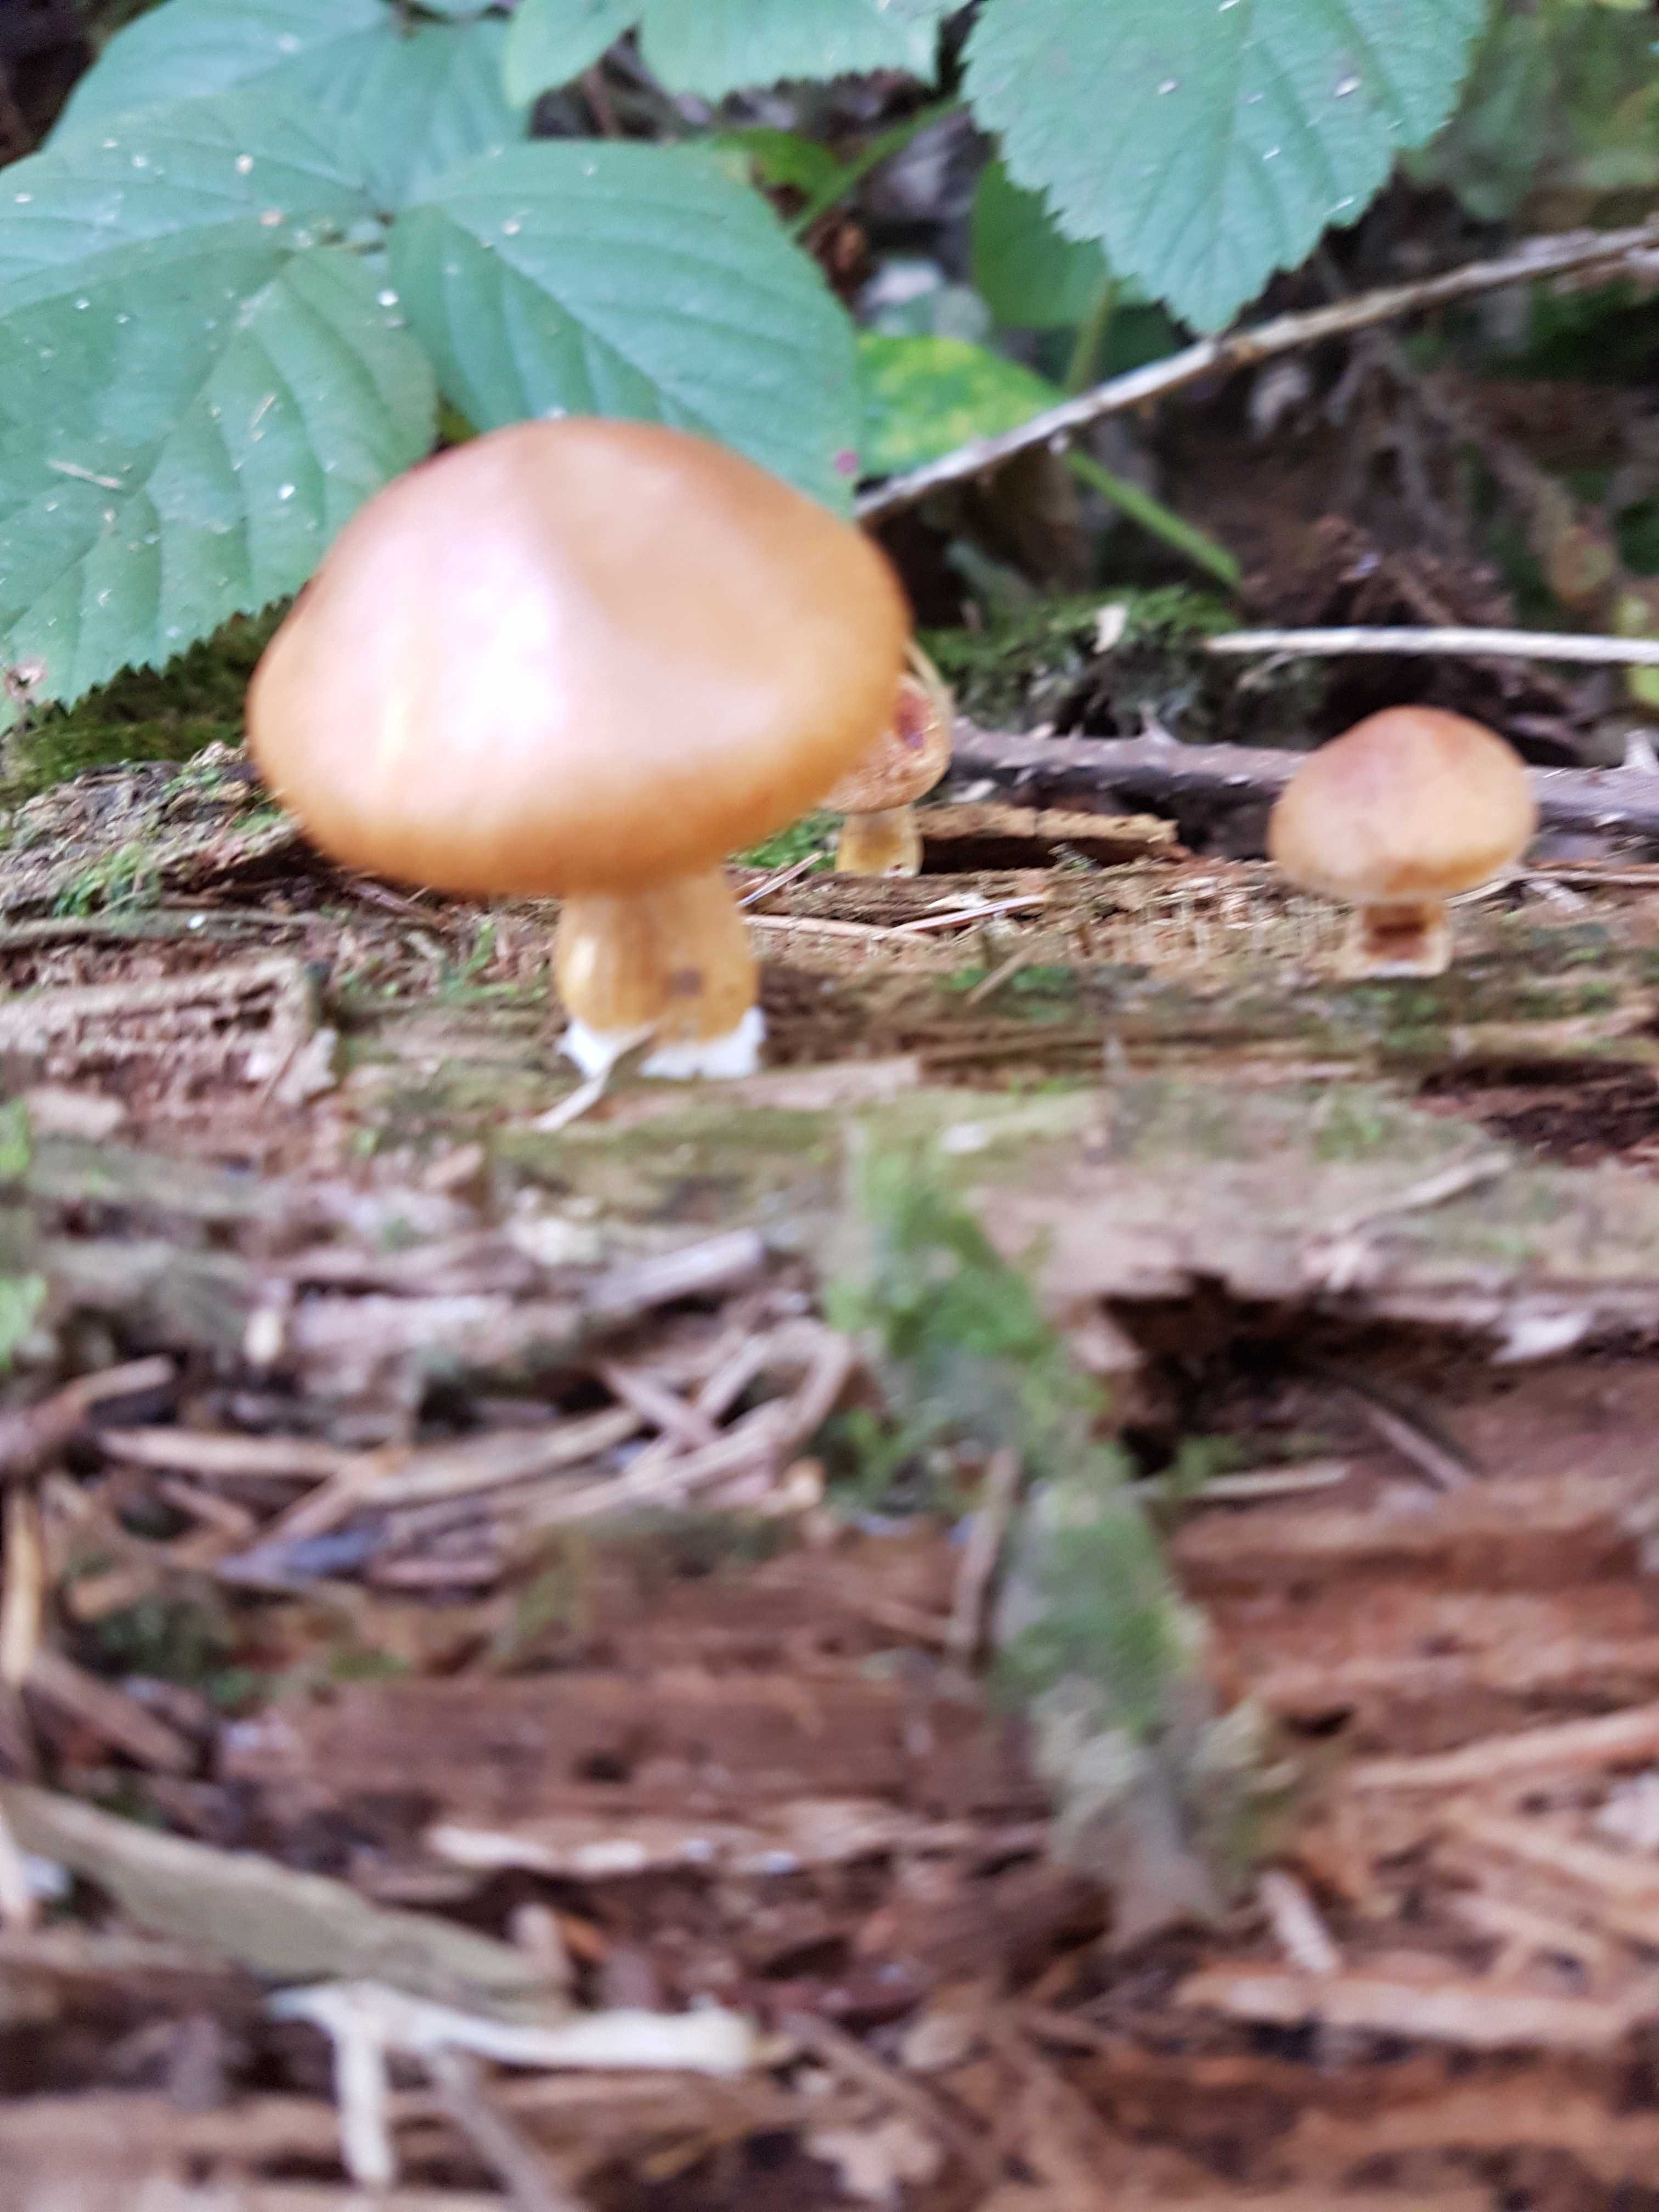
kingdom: Fungi
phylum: Basidiomycota
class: Agaricomycetes
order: Agaricales
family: Hymenogastraceae
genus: Gymnopilus
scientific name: Gymnopilus penetrans
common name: plettet flammehat
